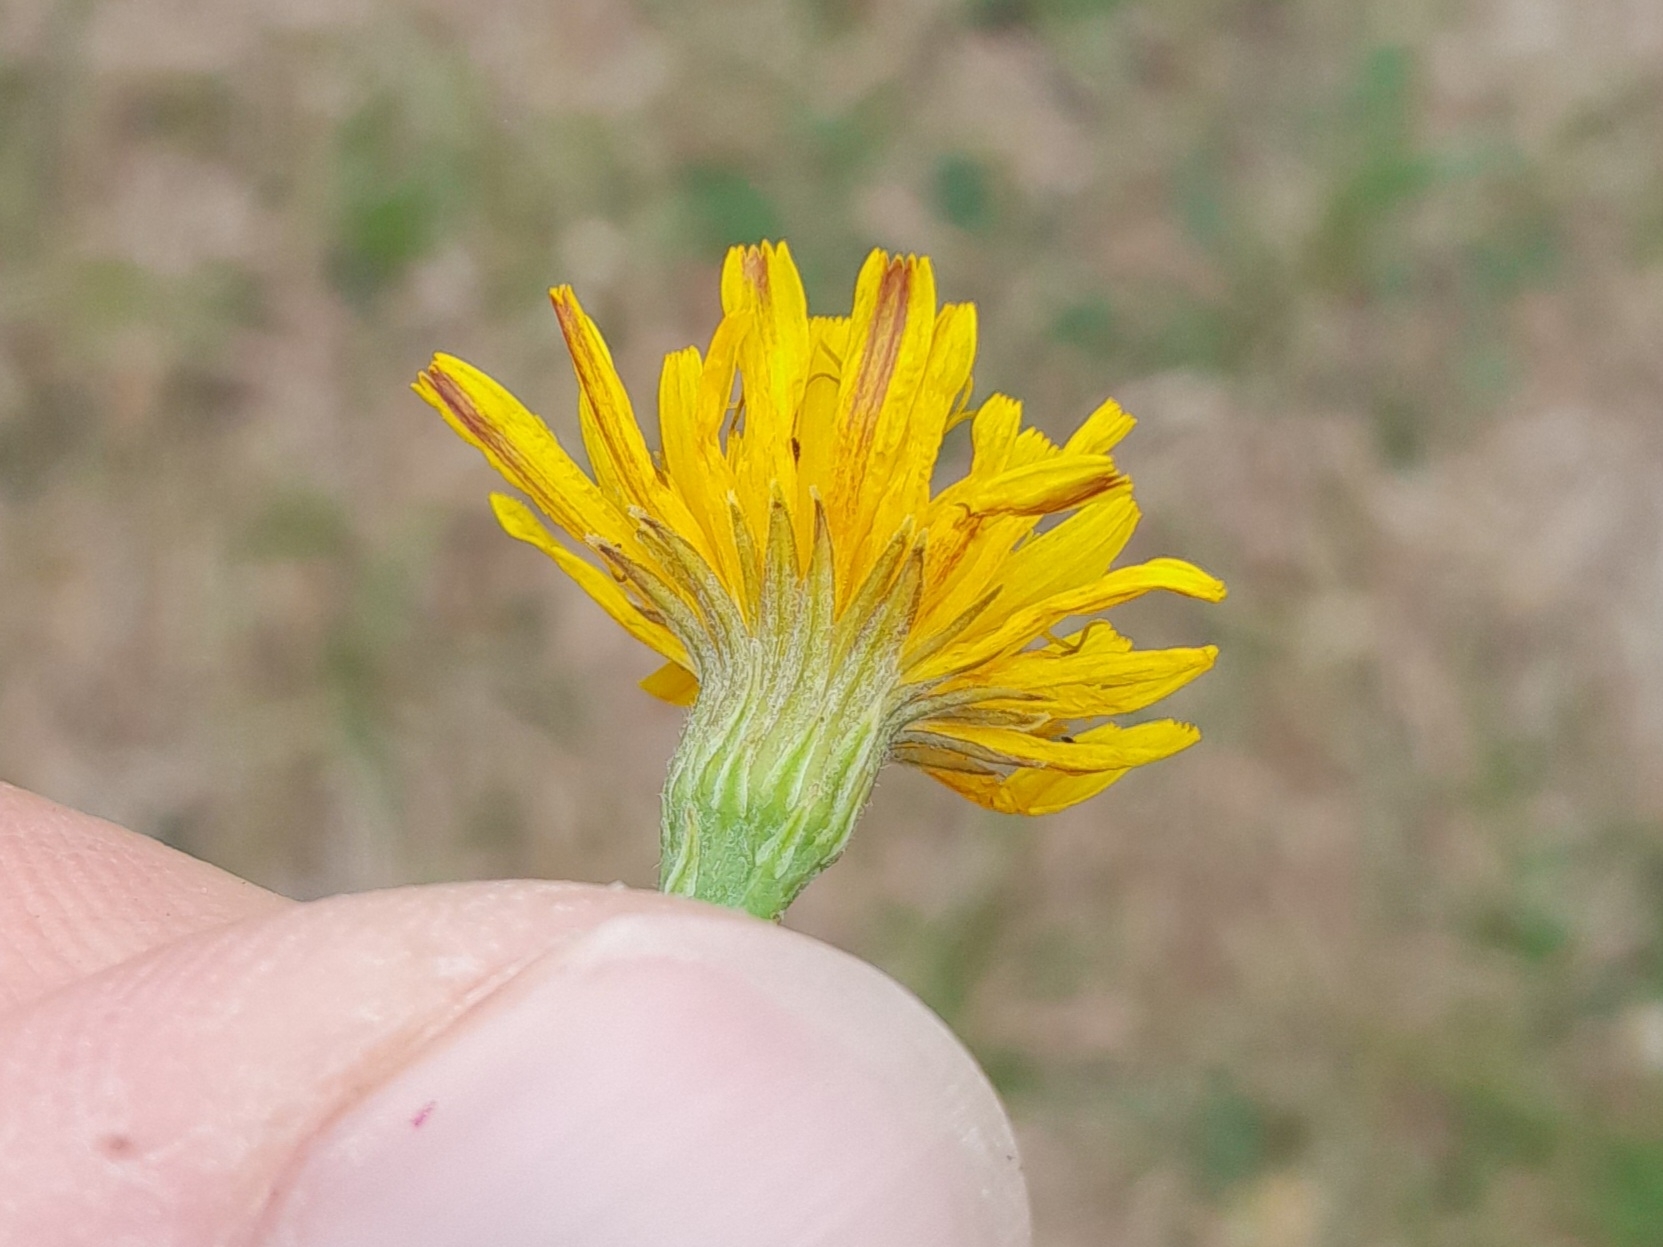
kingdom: Plantae
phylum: Tracheophyta
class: Magnoliopsida
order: Asterales
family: Asteraceae
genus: Scorzoneroides
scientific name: Scorzoneroides autumnalis
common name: Høst-borst
